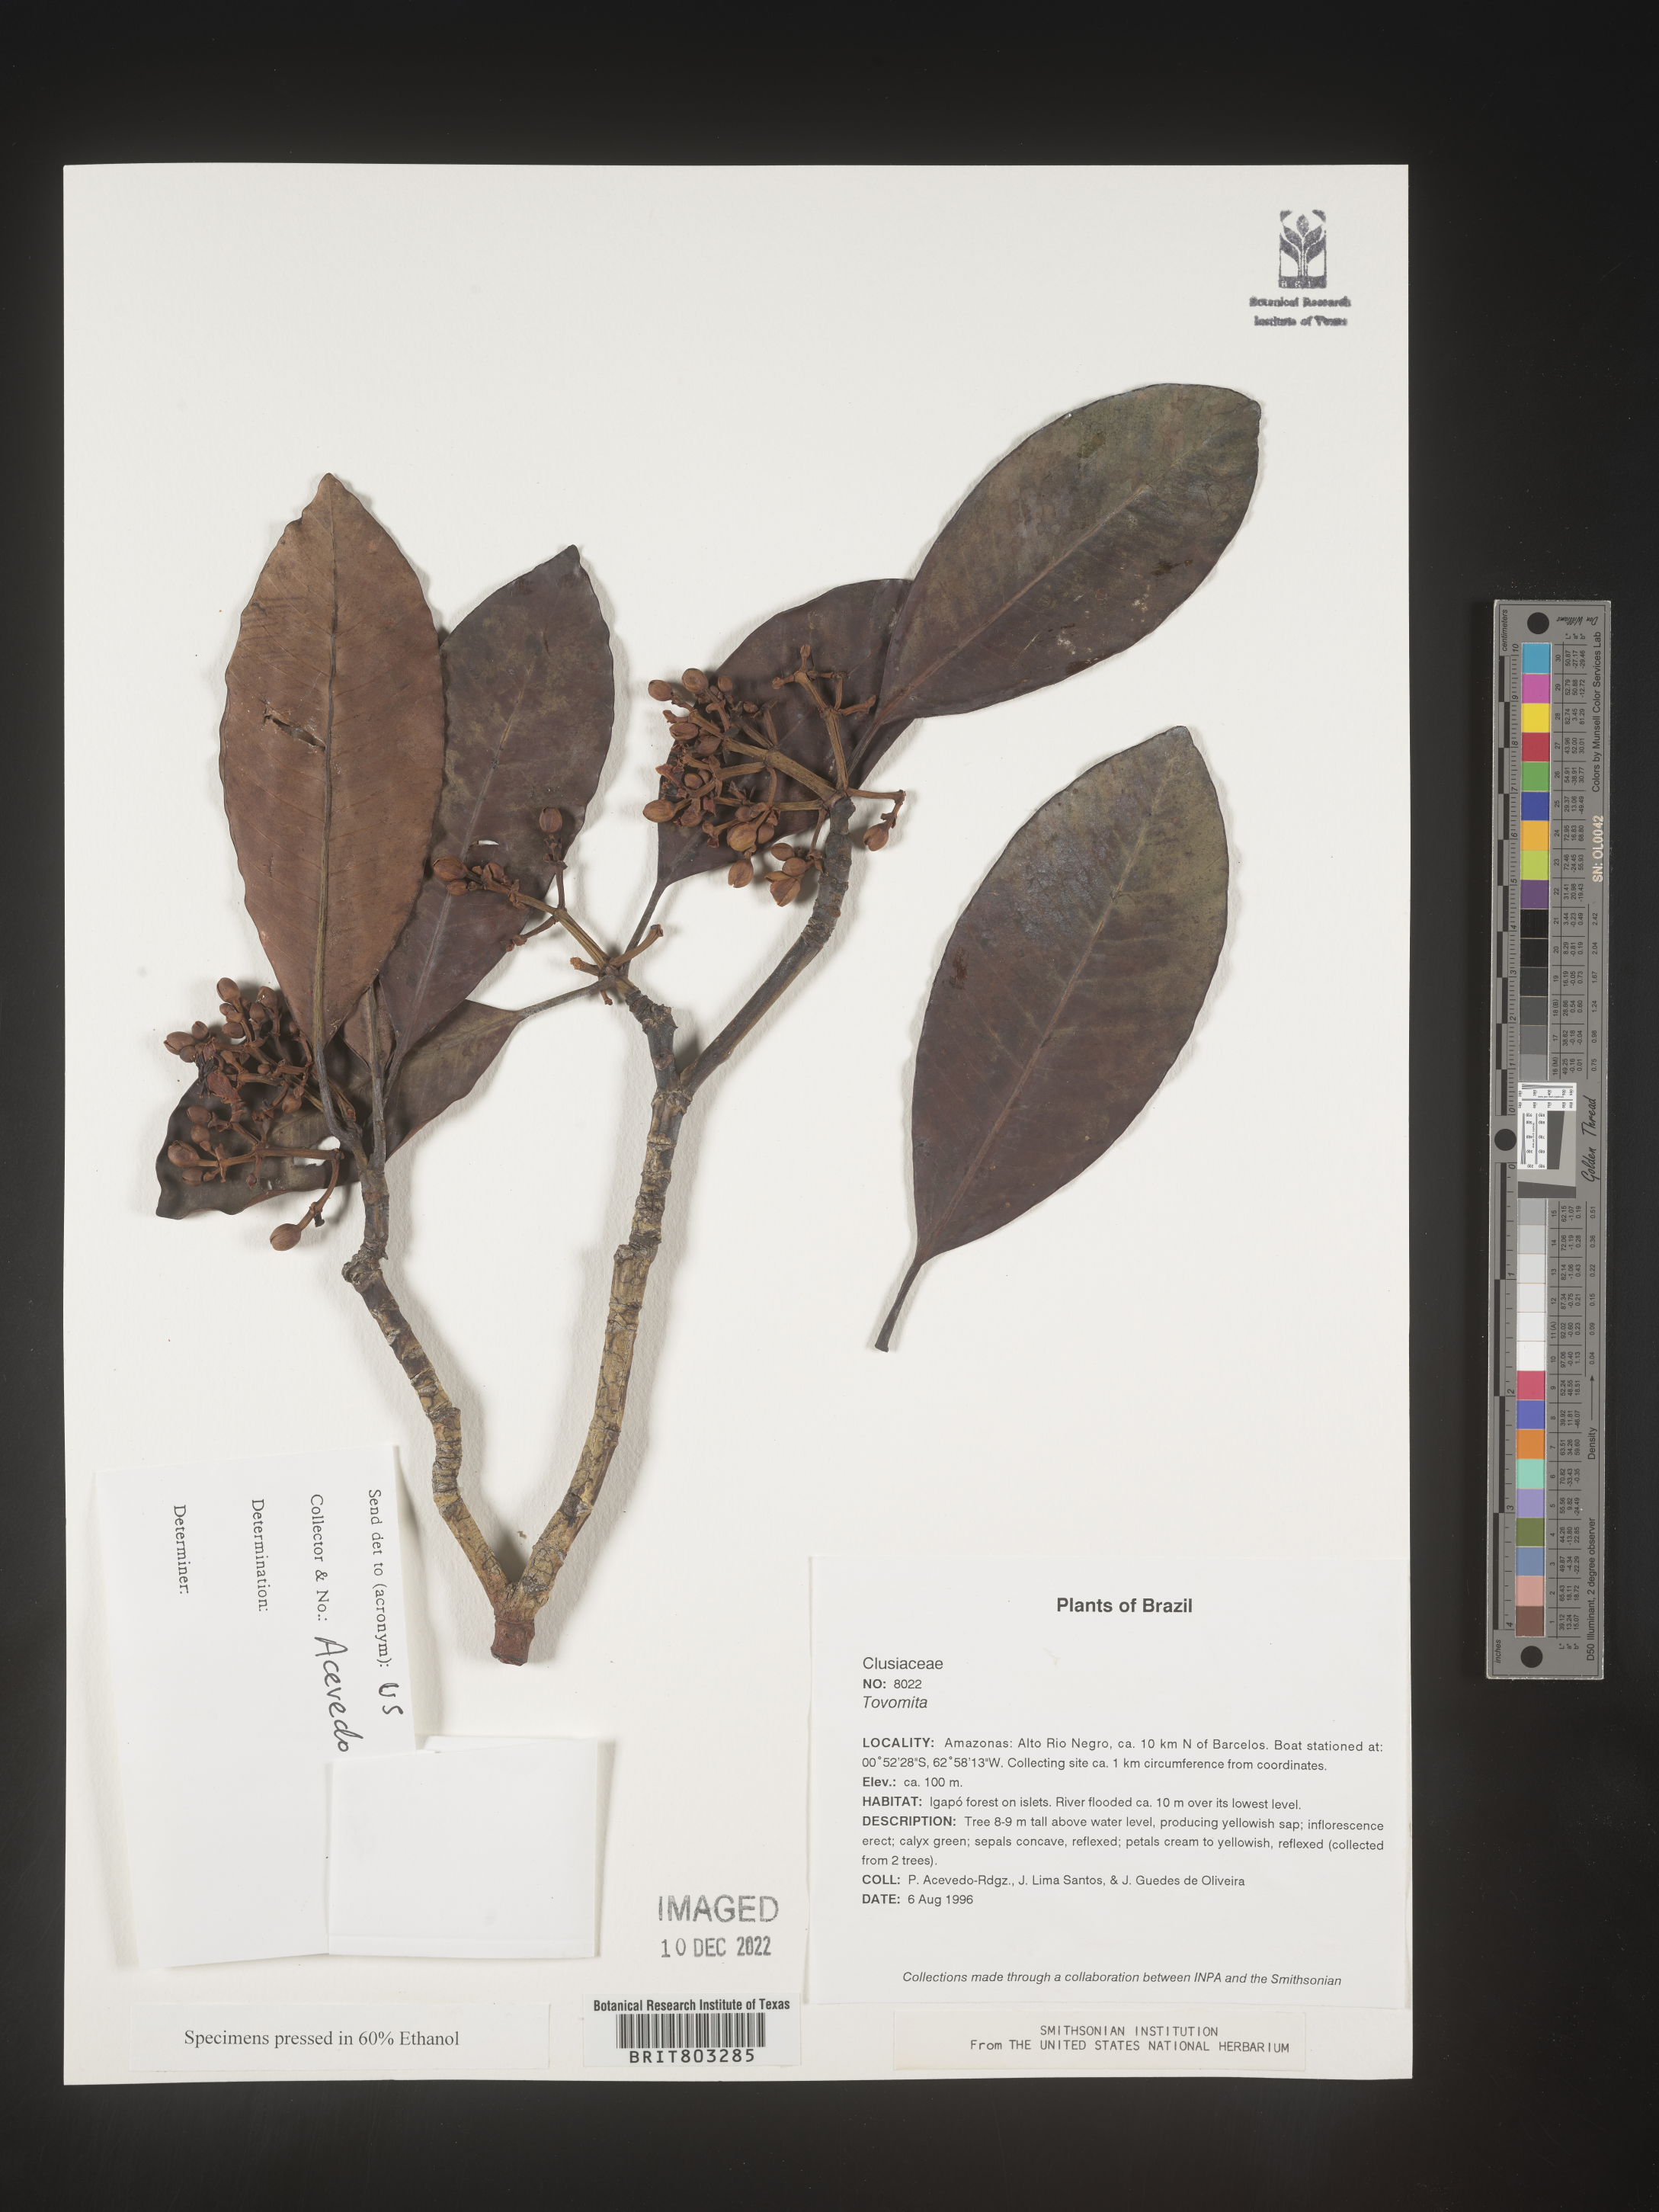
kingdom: Plantae
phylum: Tracheophyta
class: Magnoliopsida
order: Malpighiales
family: Clusiaceae
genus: Tovomita
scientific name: Tovomita
